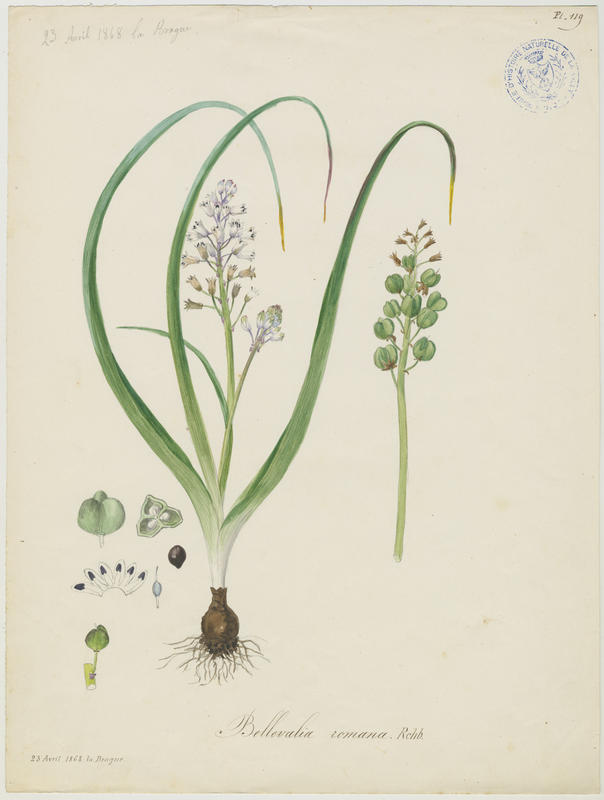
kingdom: Plantae
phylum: Tracheophyta
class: Liliopsida
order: Asparagales
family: Asparagaceae
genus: Bellevalia
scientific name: Bellevalia romana
